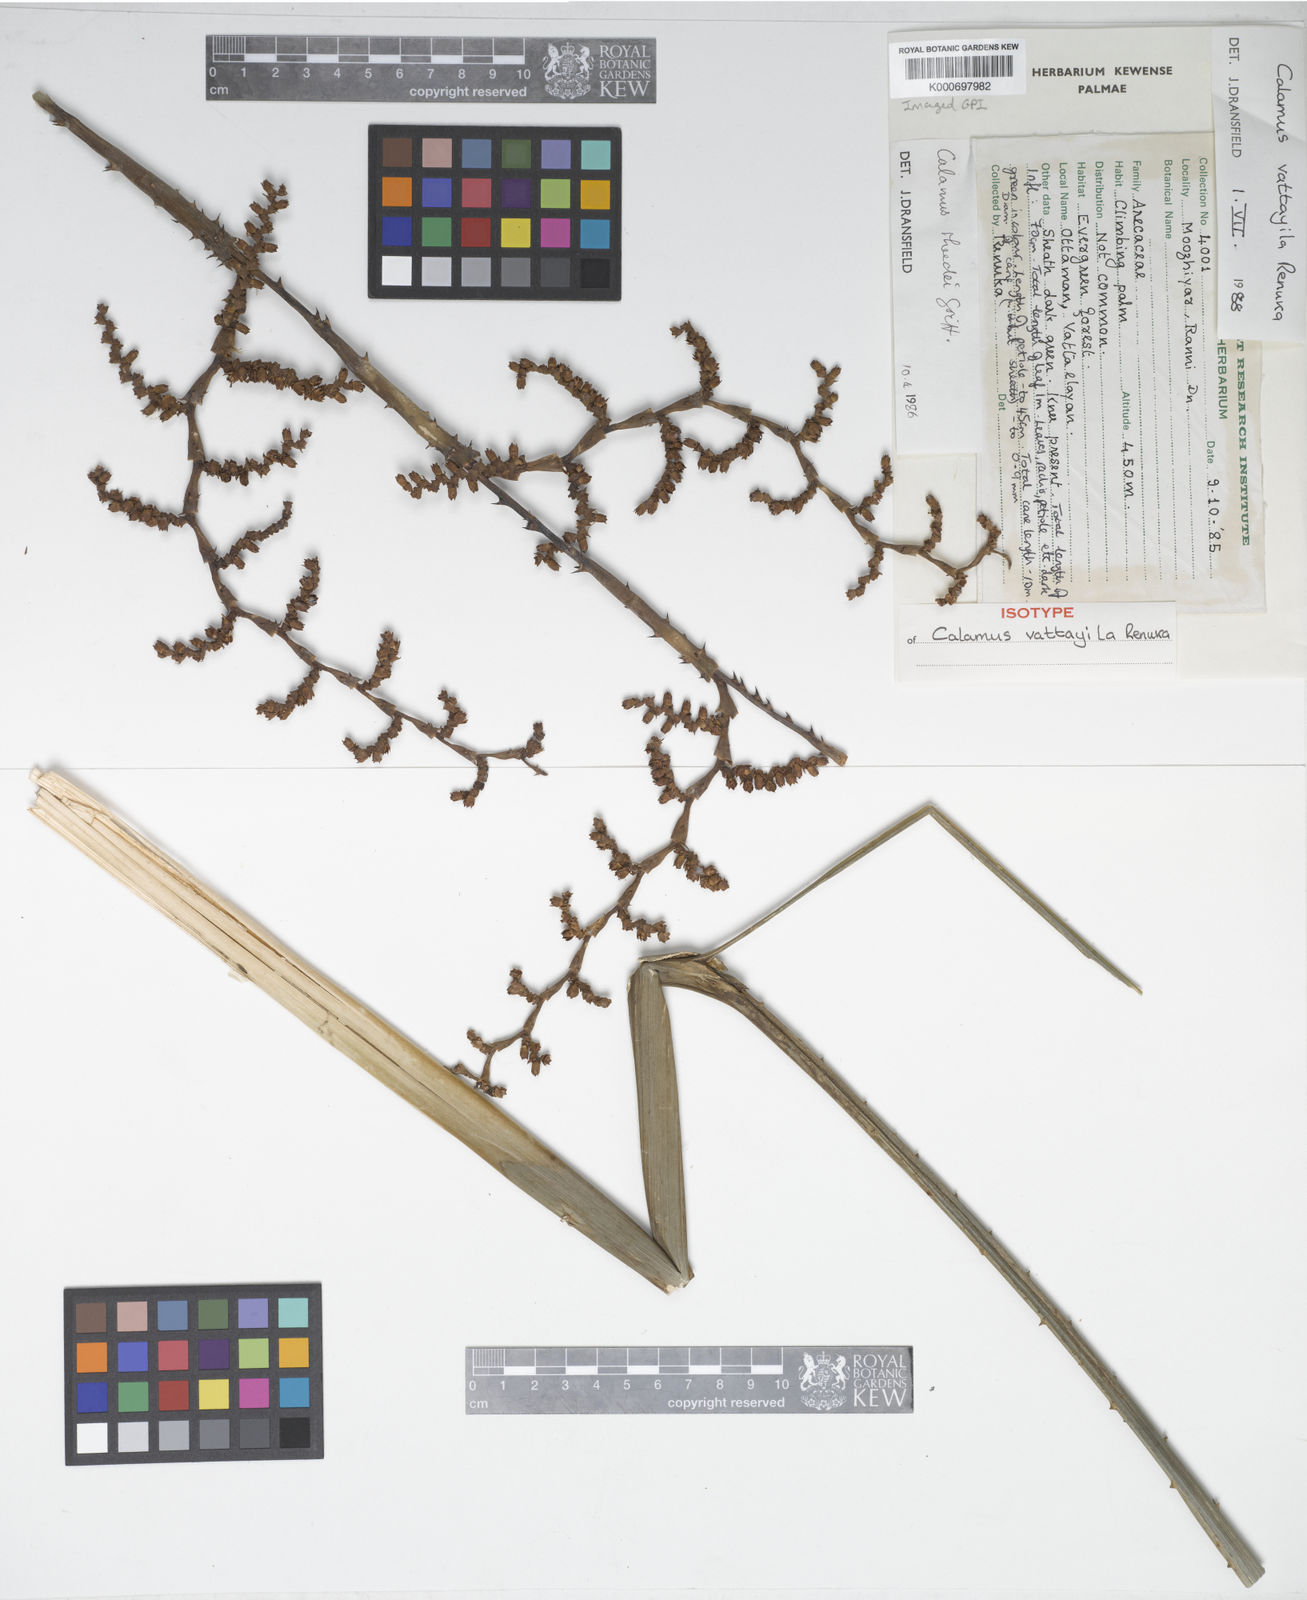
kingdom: Plantae
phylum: Tracheophyta
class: Liliopsida
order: Arecales
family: Arecaceae
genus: Calamus
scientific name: Calamus vattayila
